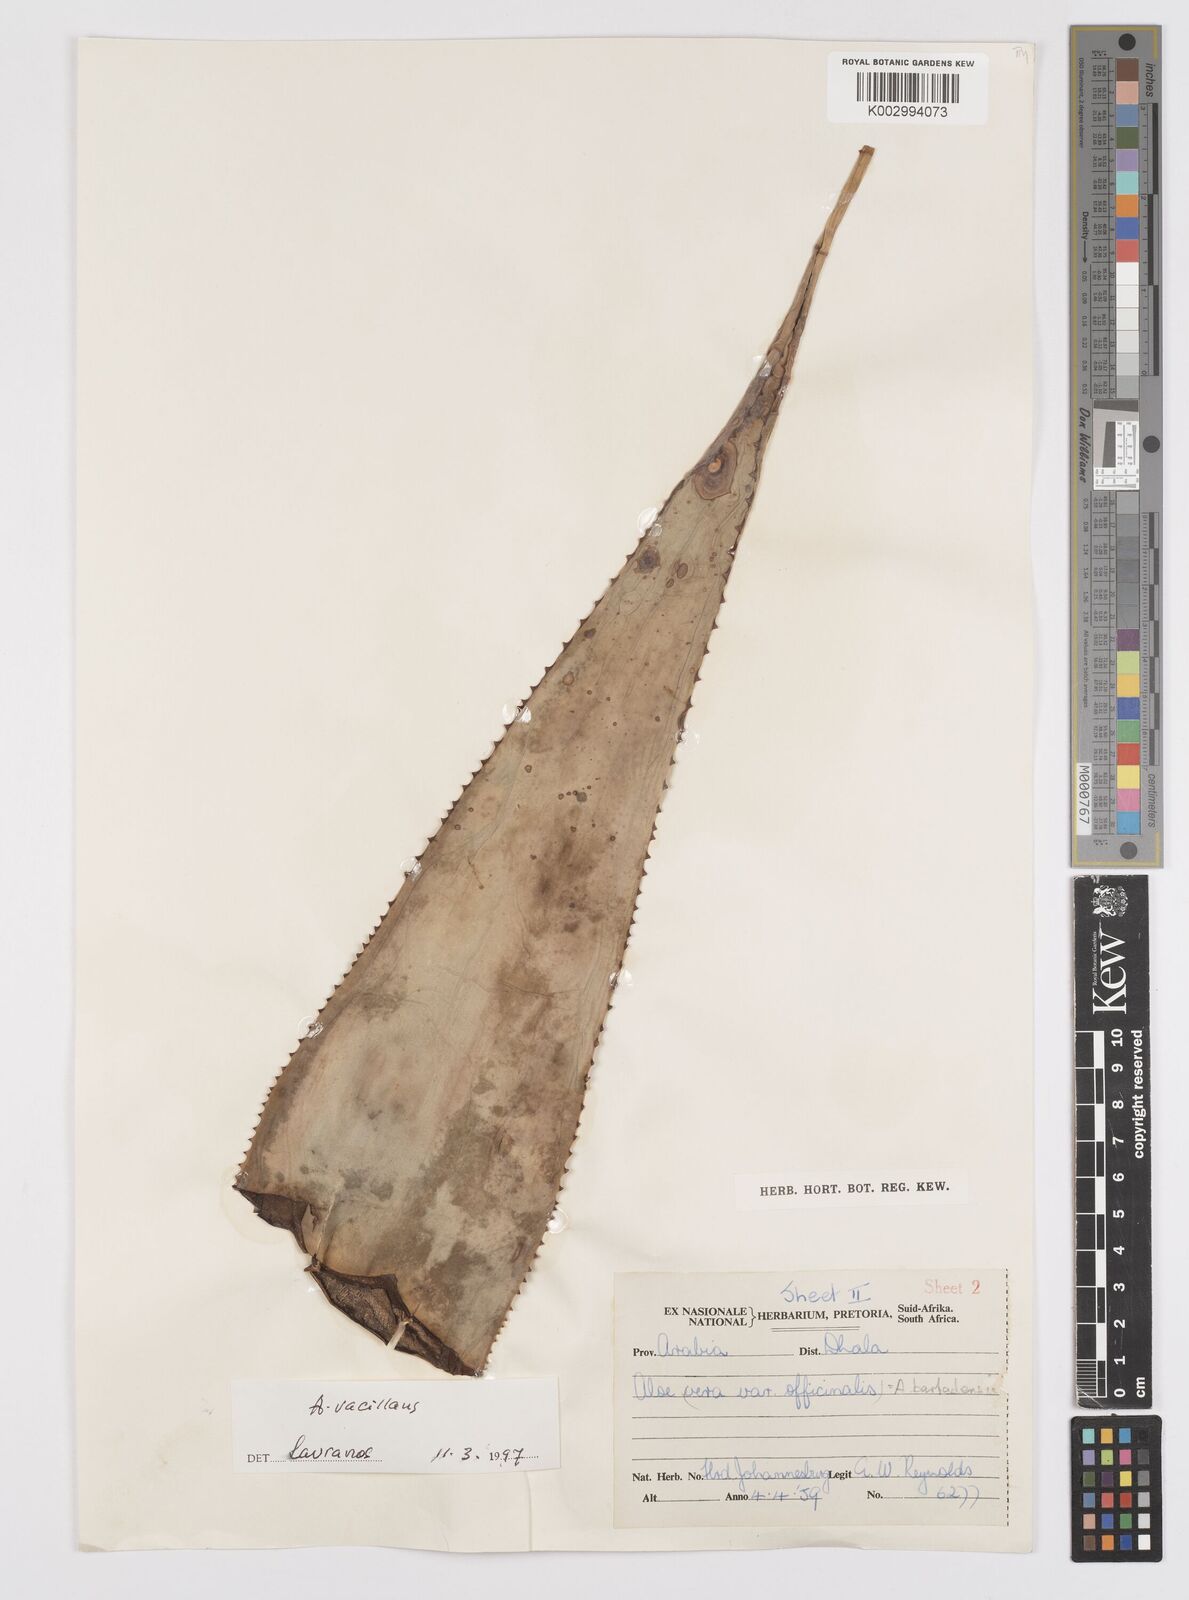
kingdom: Plantae
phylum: Tracheophyta
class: Liliopsida
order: Asparagales
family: Asphodelaceae
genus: Aloe
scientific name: Aloe officinalis
